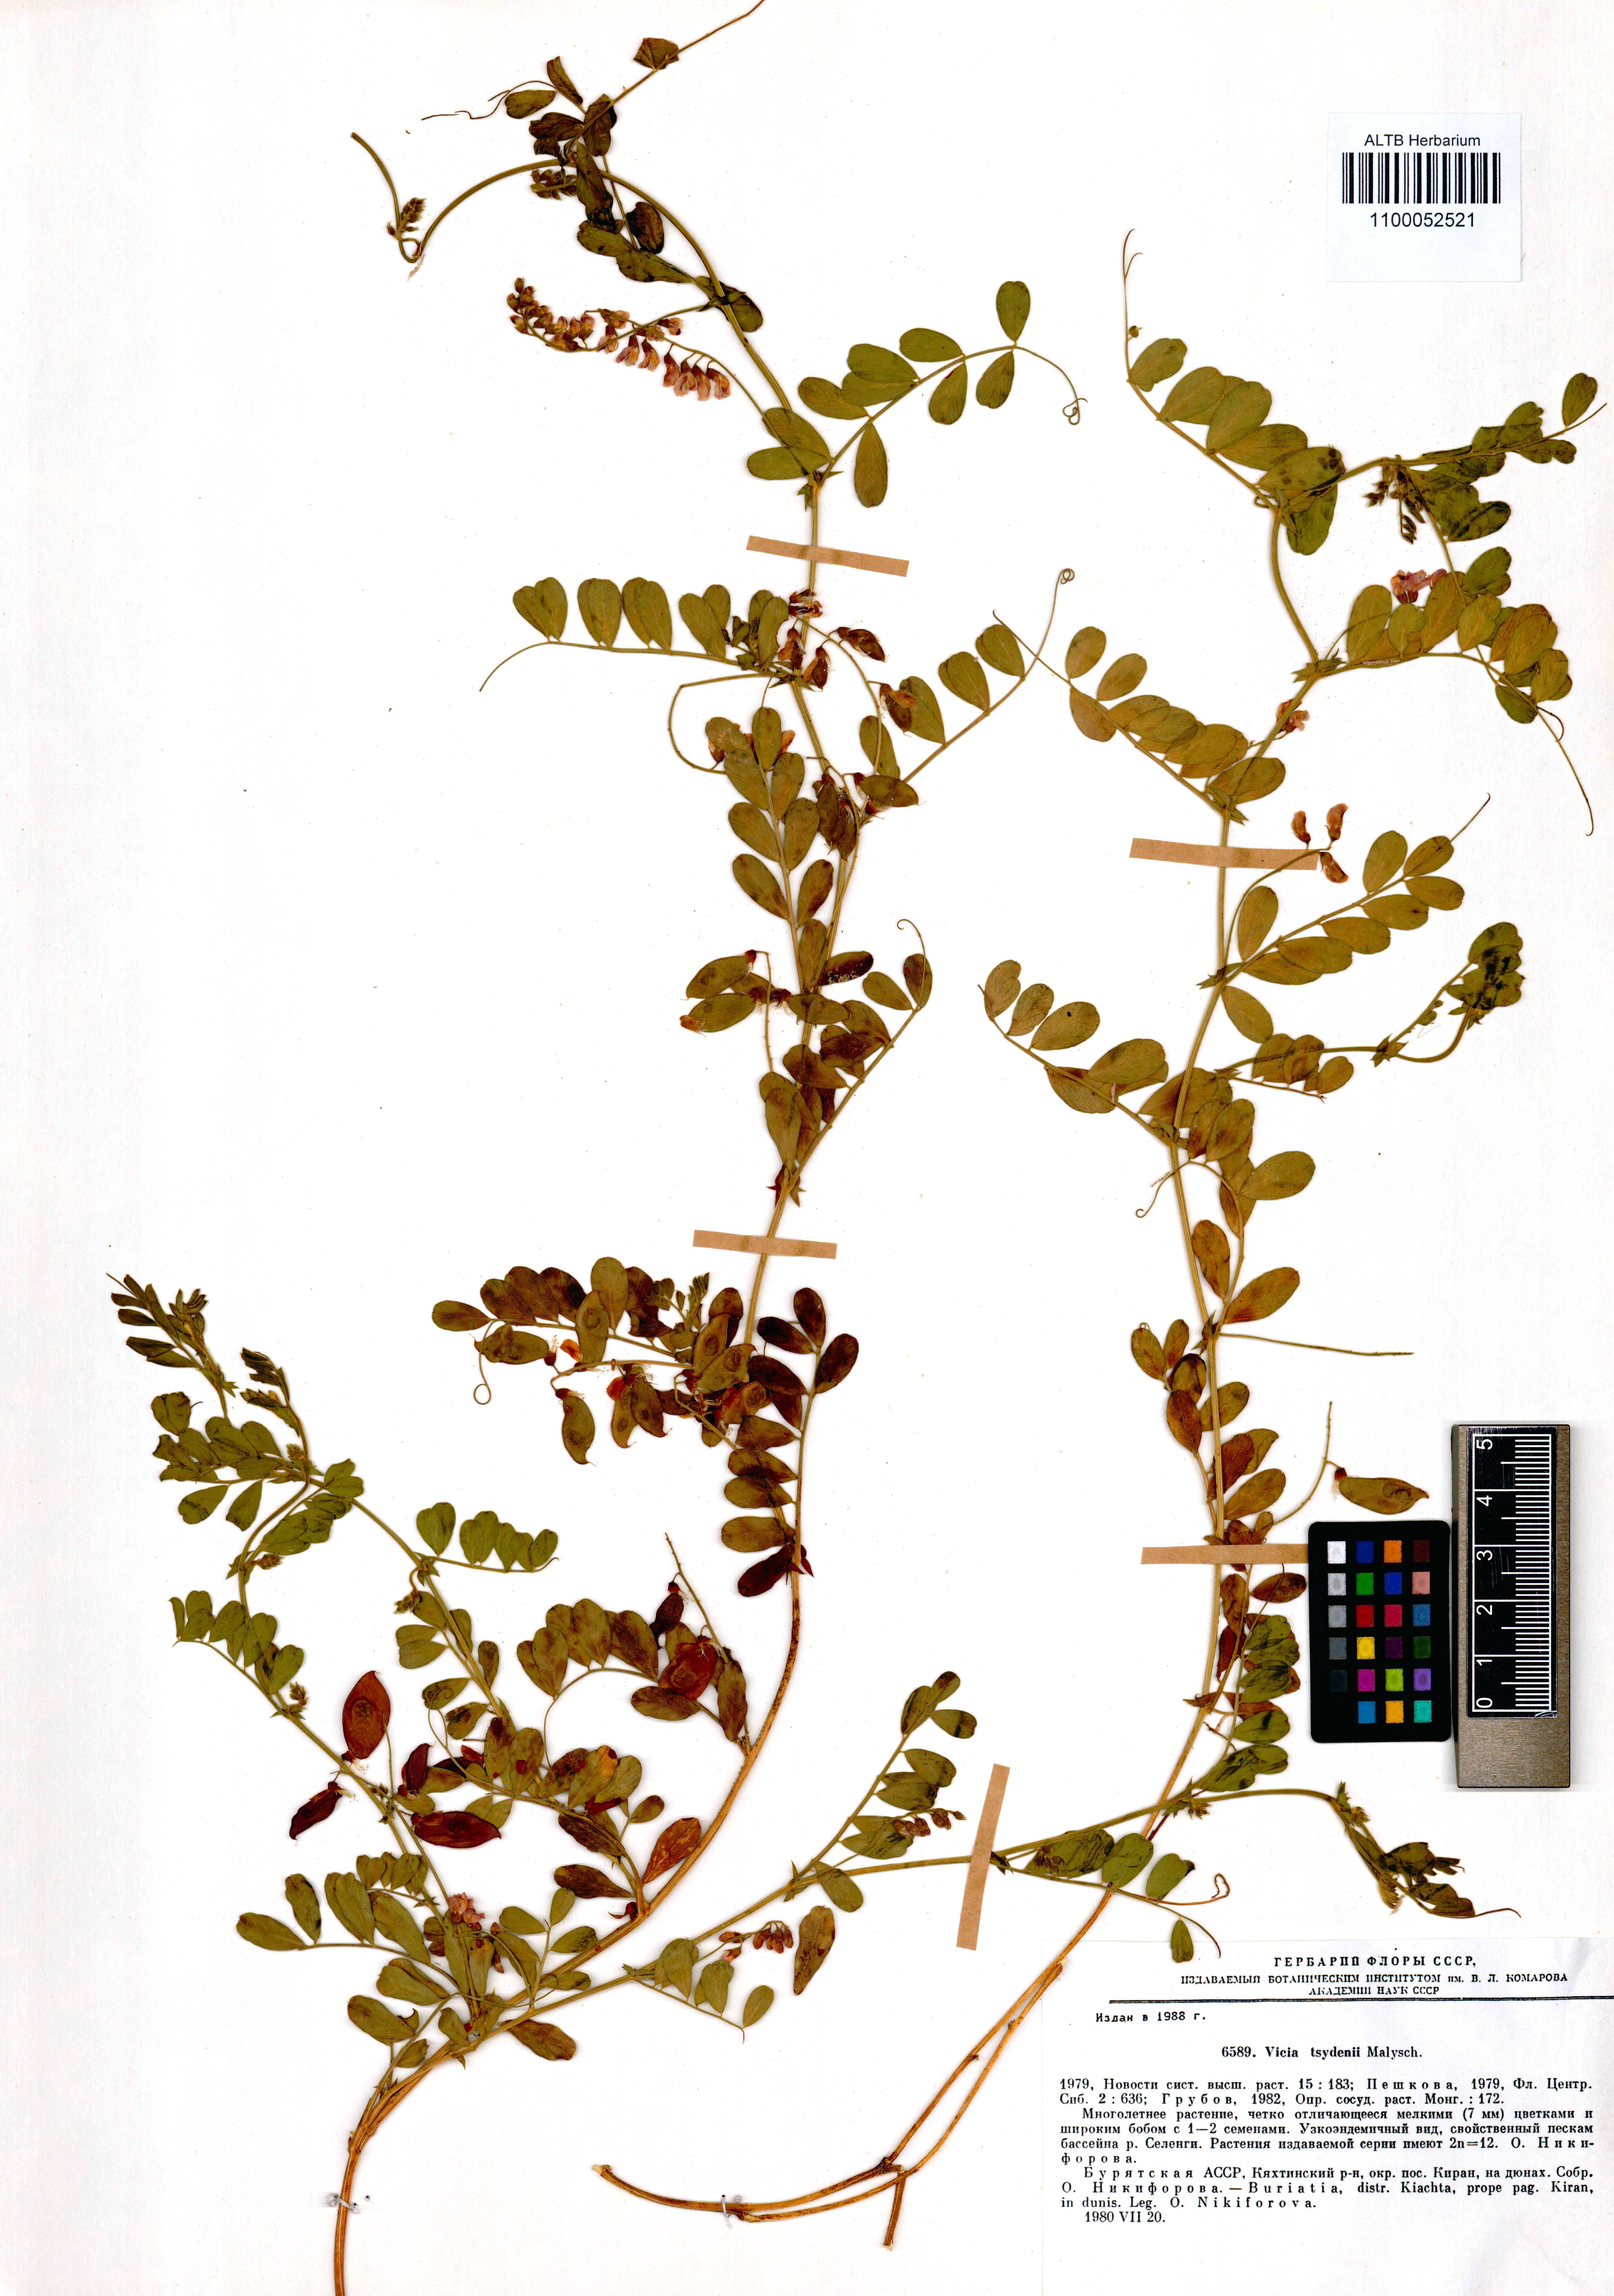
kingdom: Plantae
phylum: Tracheophyta
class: Magnoliopsida
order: Fabales
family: Fabaceae
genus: Vicia
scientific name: Vicia tsydenii
